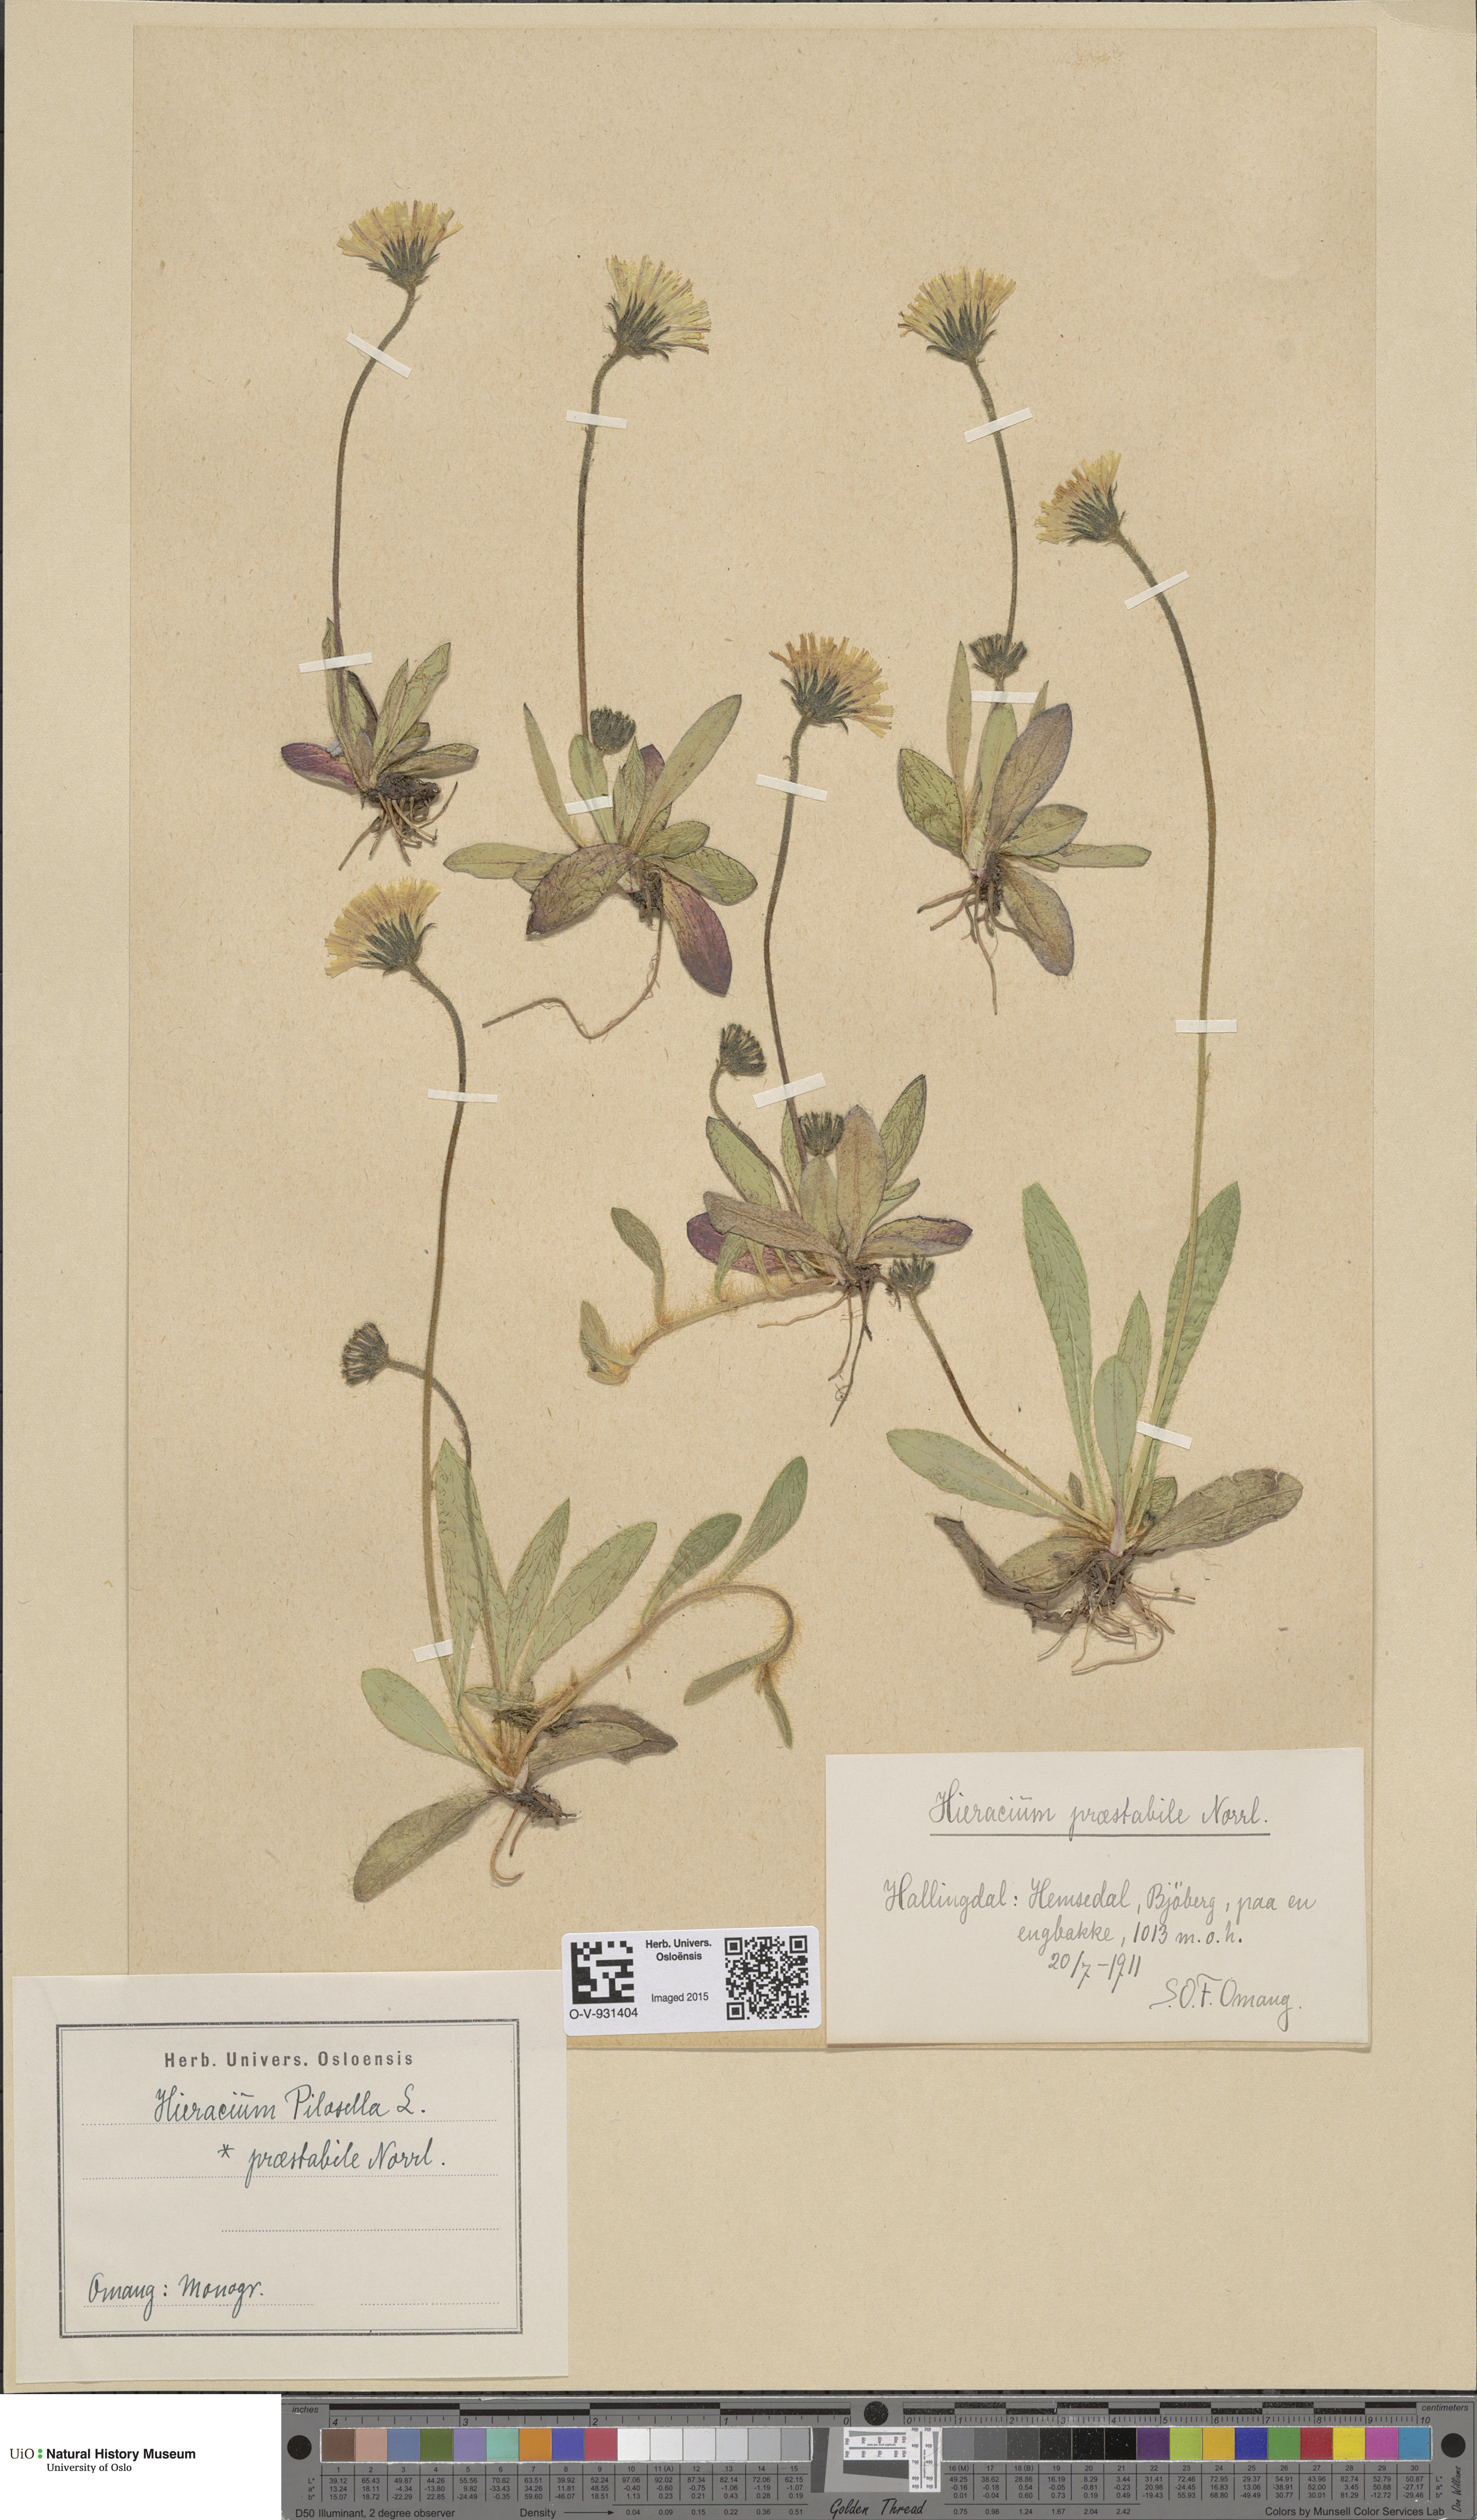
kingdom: Plantae
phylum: Tracheophyta
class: Magnoliopsida
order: Asterales
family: Asteraceae
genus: Pilosella
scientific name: Pilosella officinarum
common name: Mouse-ear hawkweed
